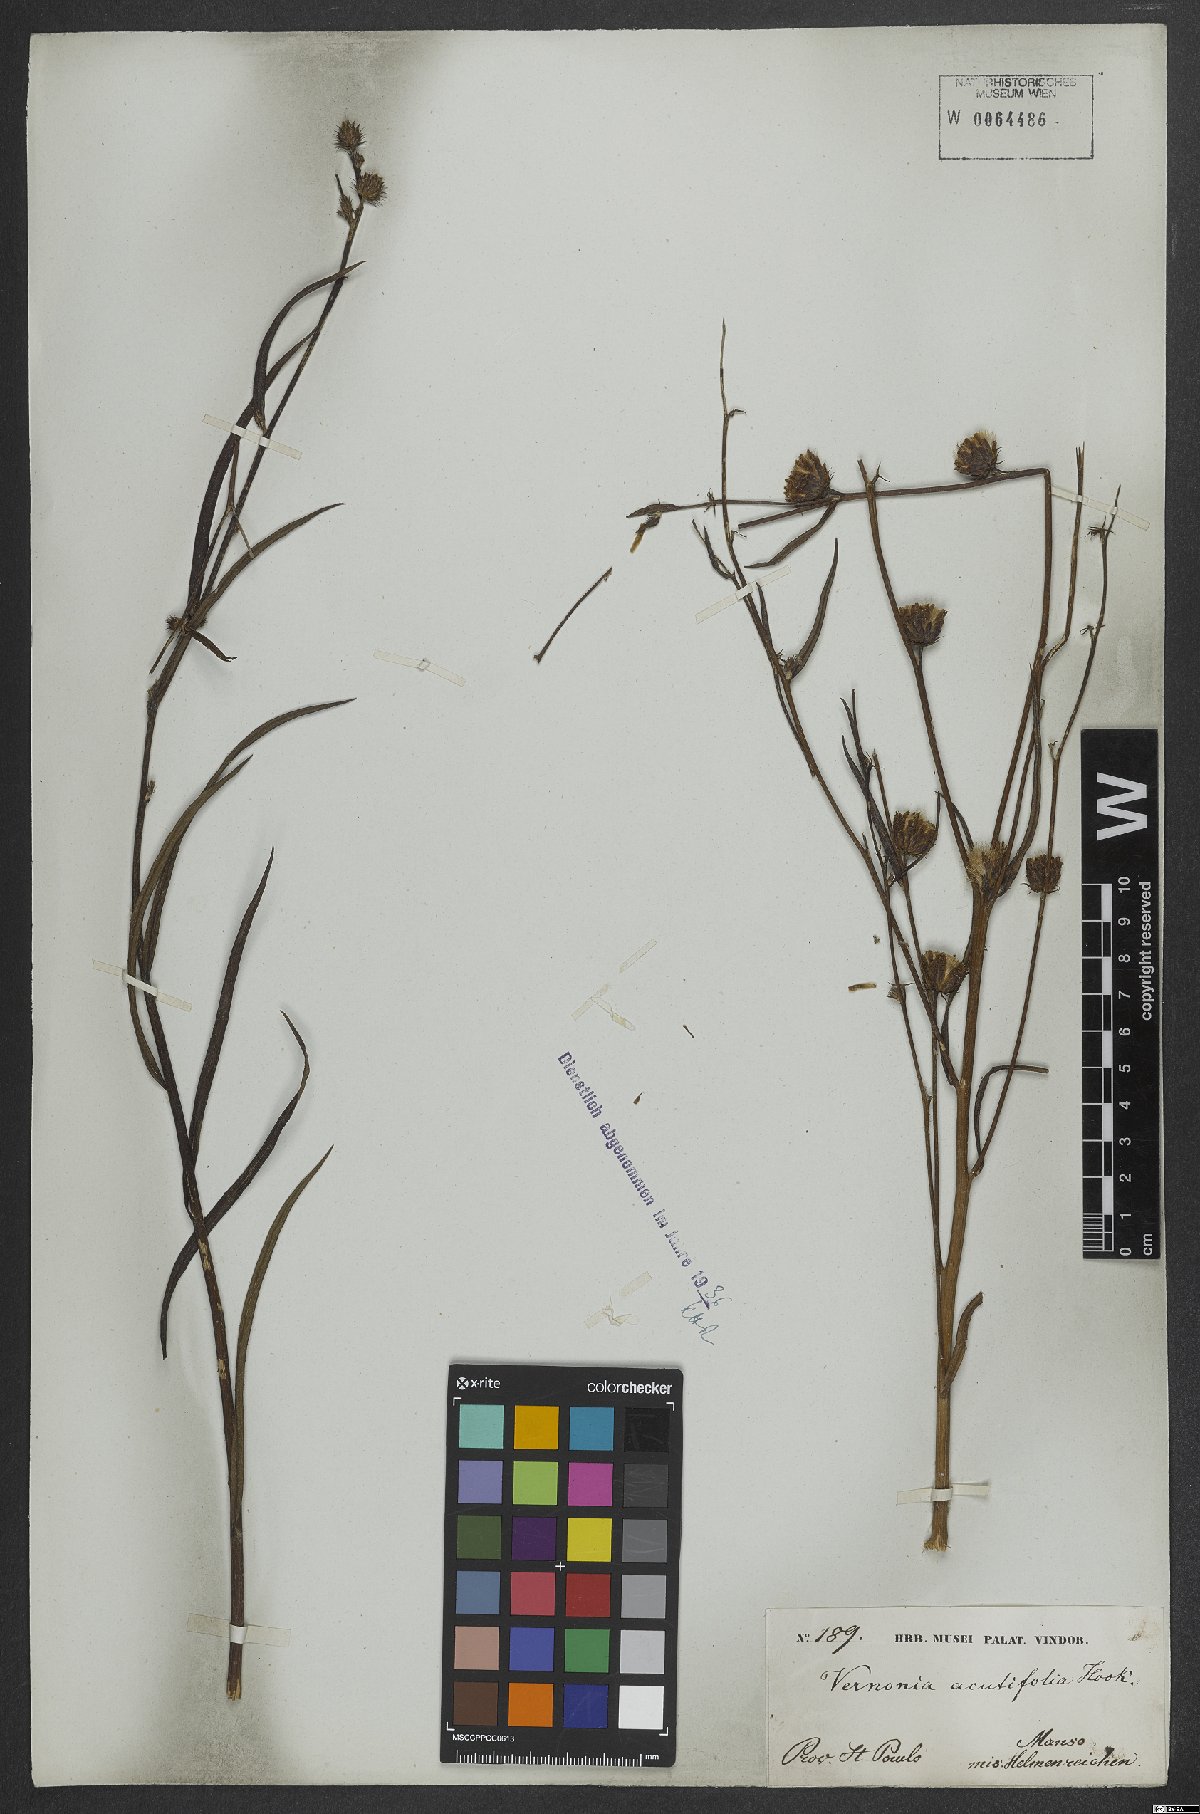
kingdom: Plantae
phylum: Tracheophyta
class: Magnoliopsida
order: Asterales
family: Asteraceae
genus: Lepidaploa
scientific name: Lepidaploa persicifolia
